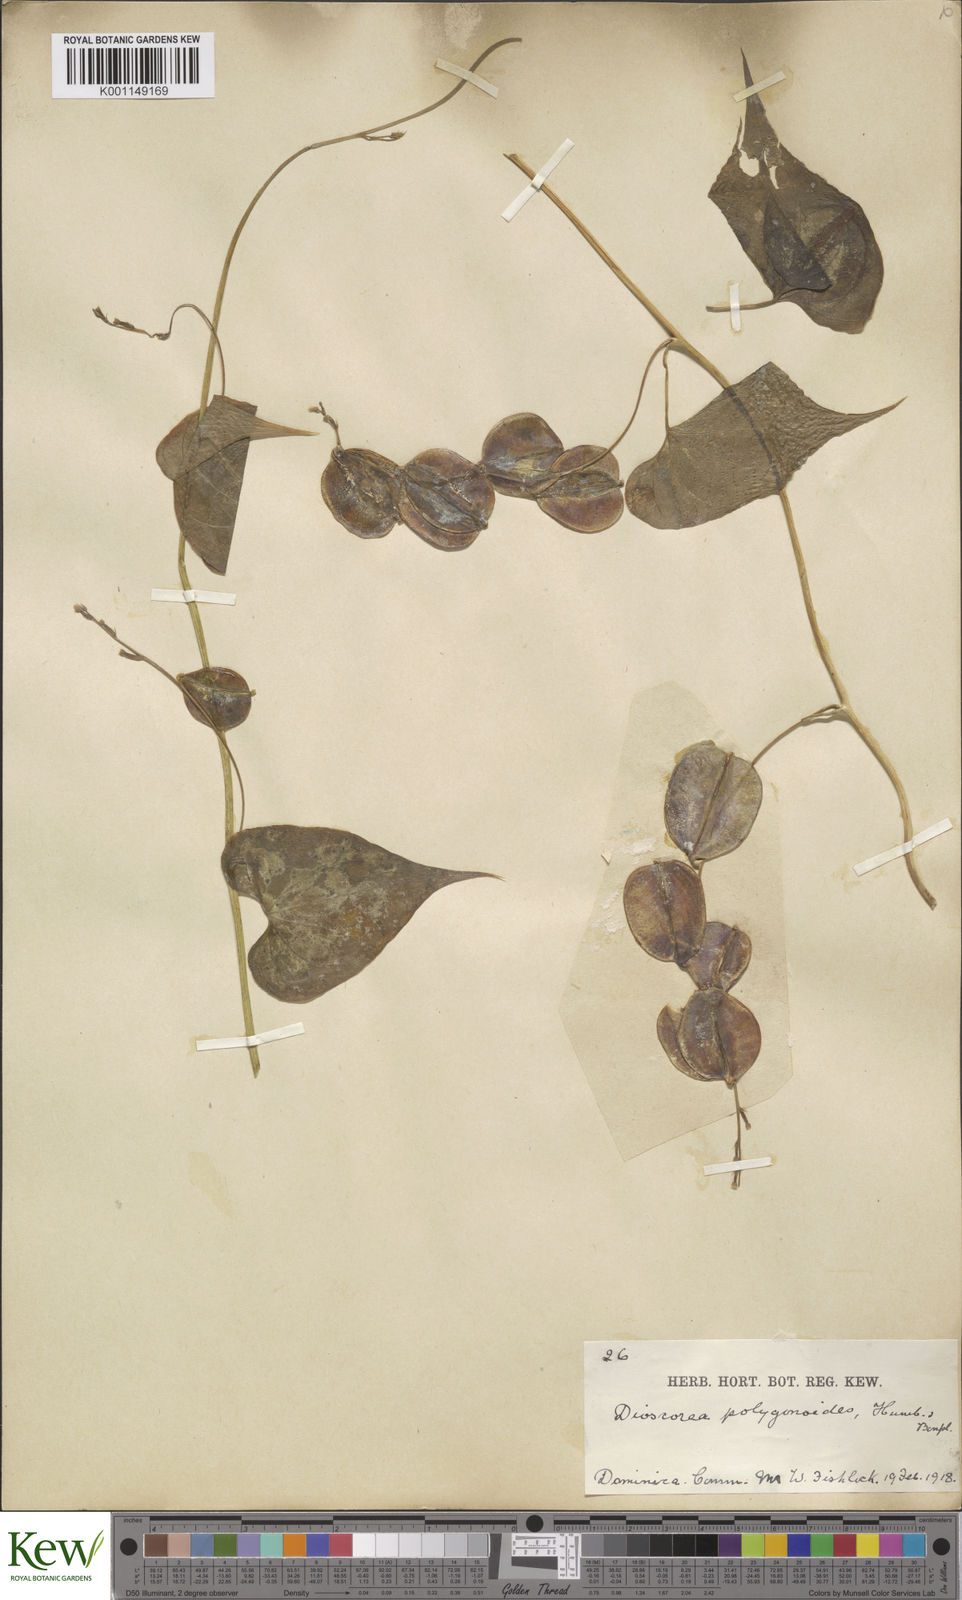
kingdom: Plantae
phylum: Tracheophyta
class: Liliopsida
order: Dioscoreales
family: Dioscoreaceae
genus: Dioscorea
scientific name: Dioscorea polygonoides
